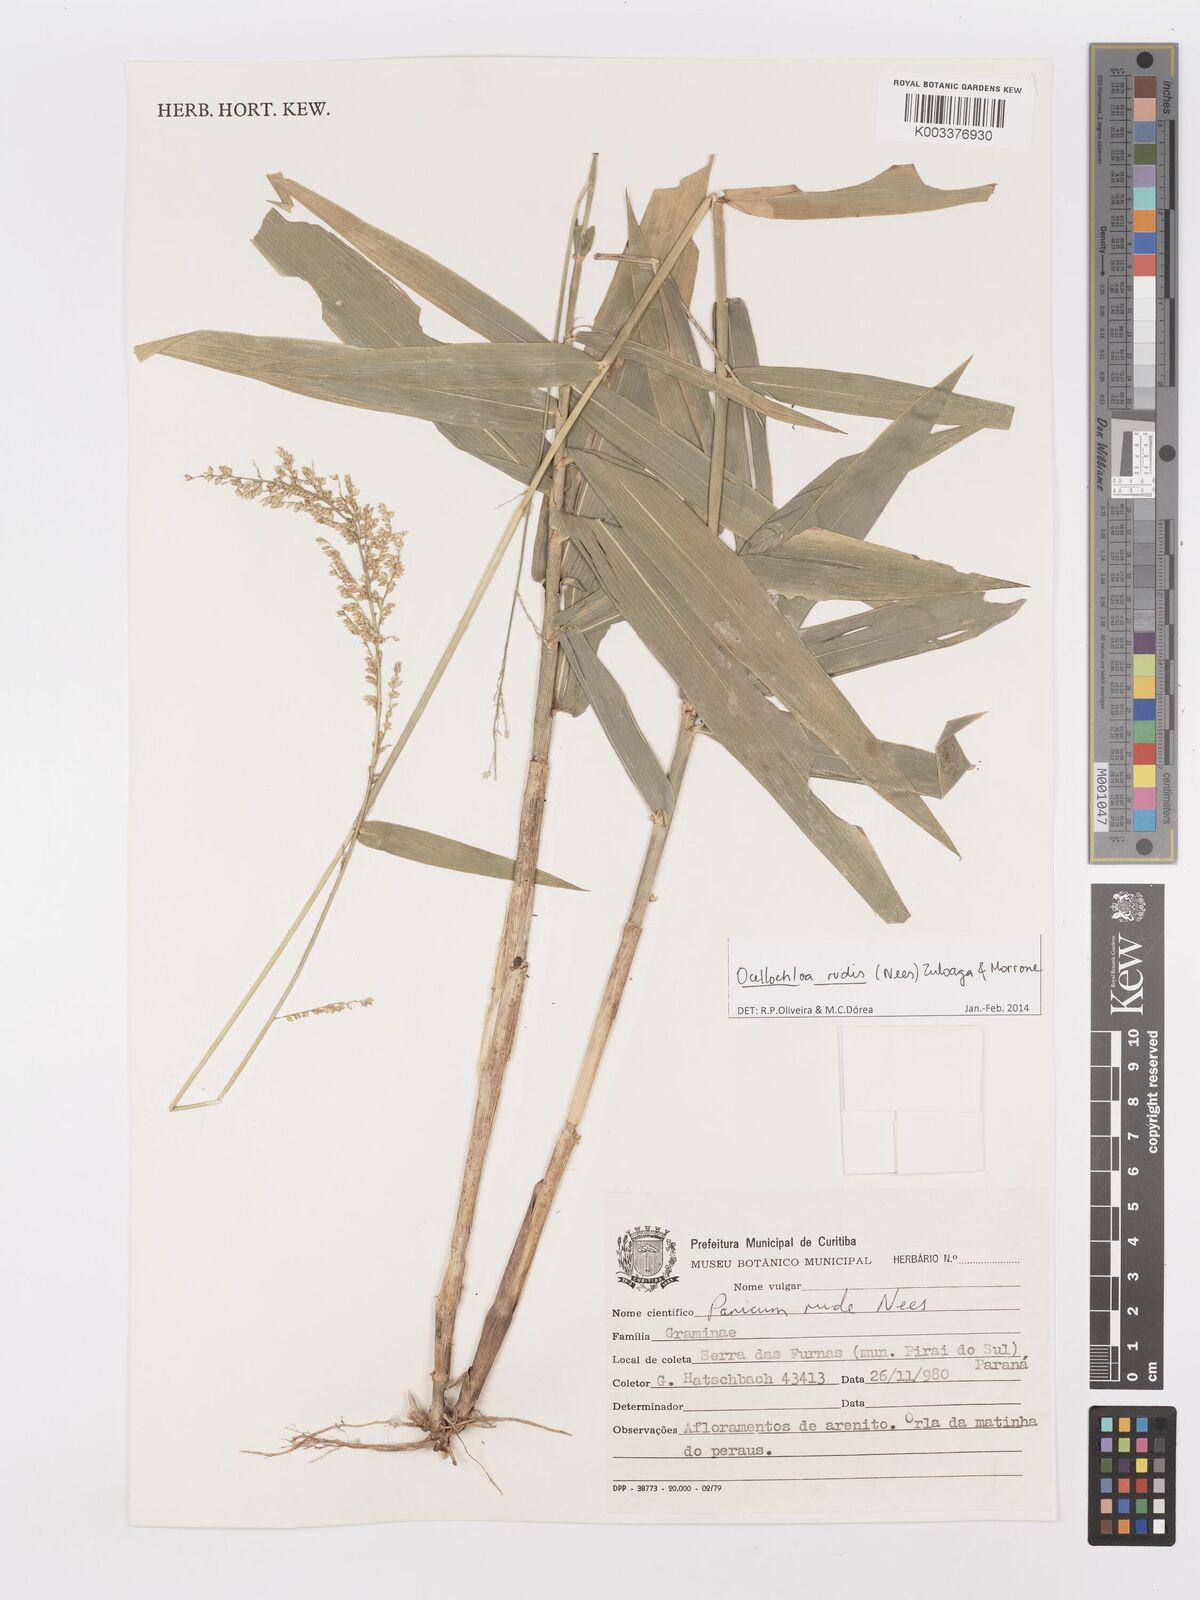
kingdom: Plantae
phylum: Tracheophyta
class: Liliopsida
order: Poales
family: Poaceae
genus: Ocellochloa
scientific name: Ocellochloa rudis
